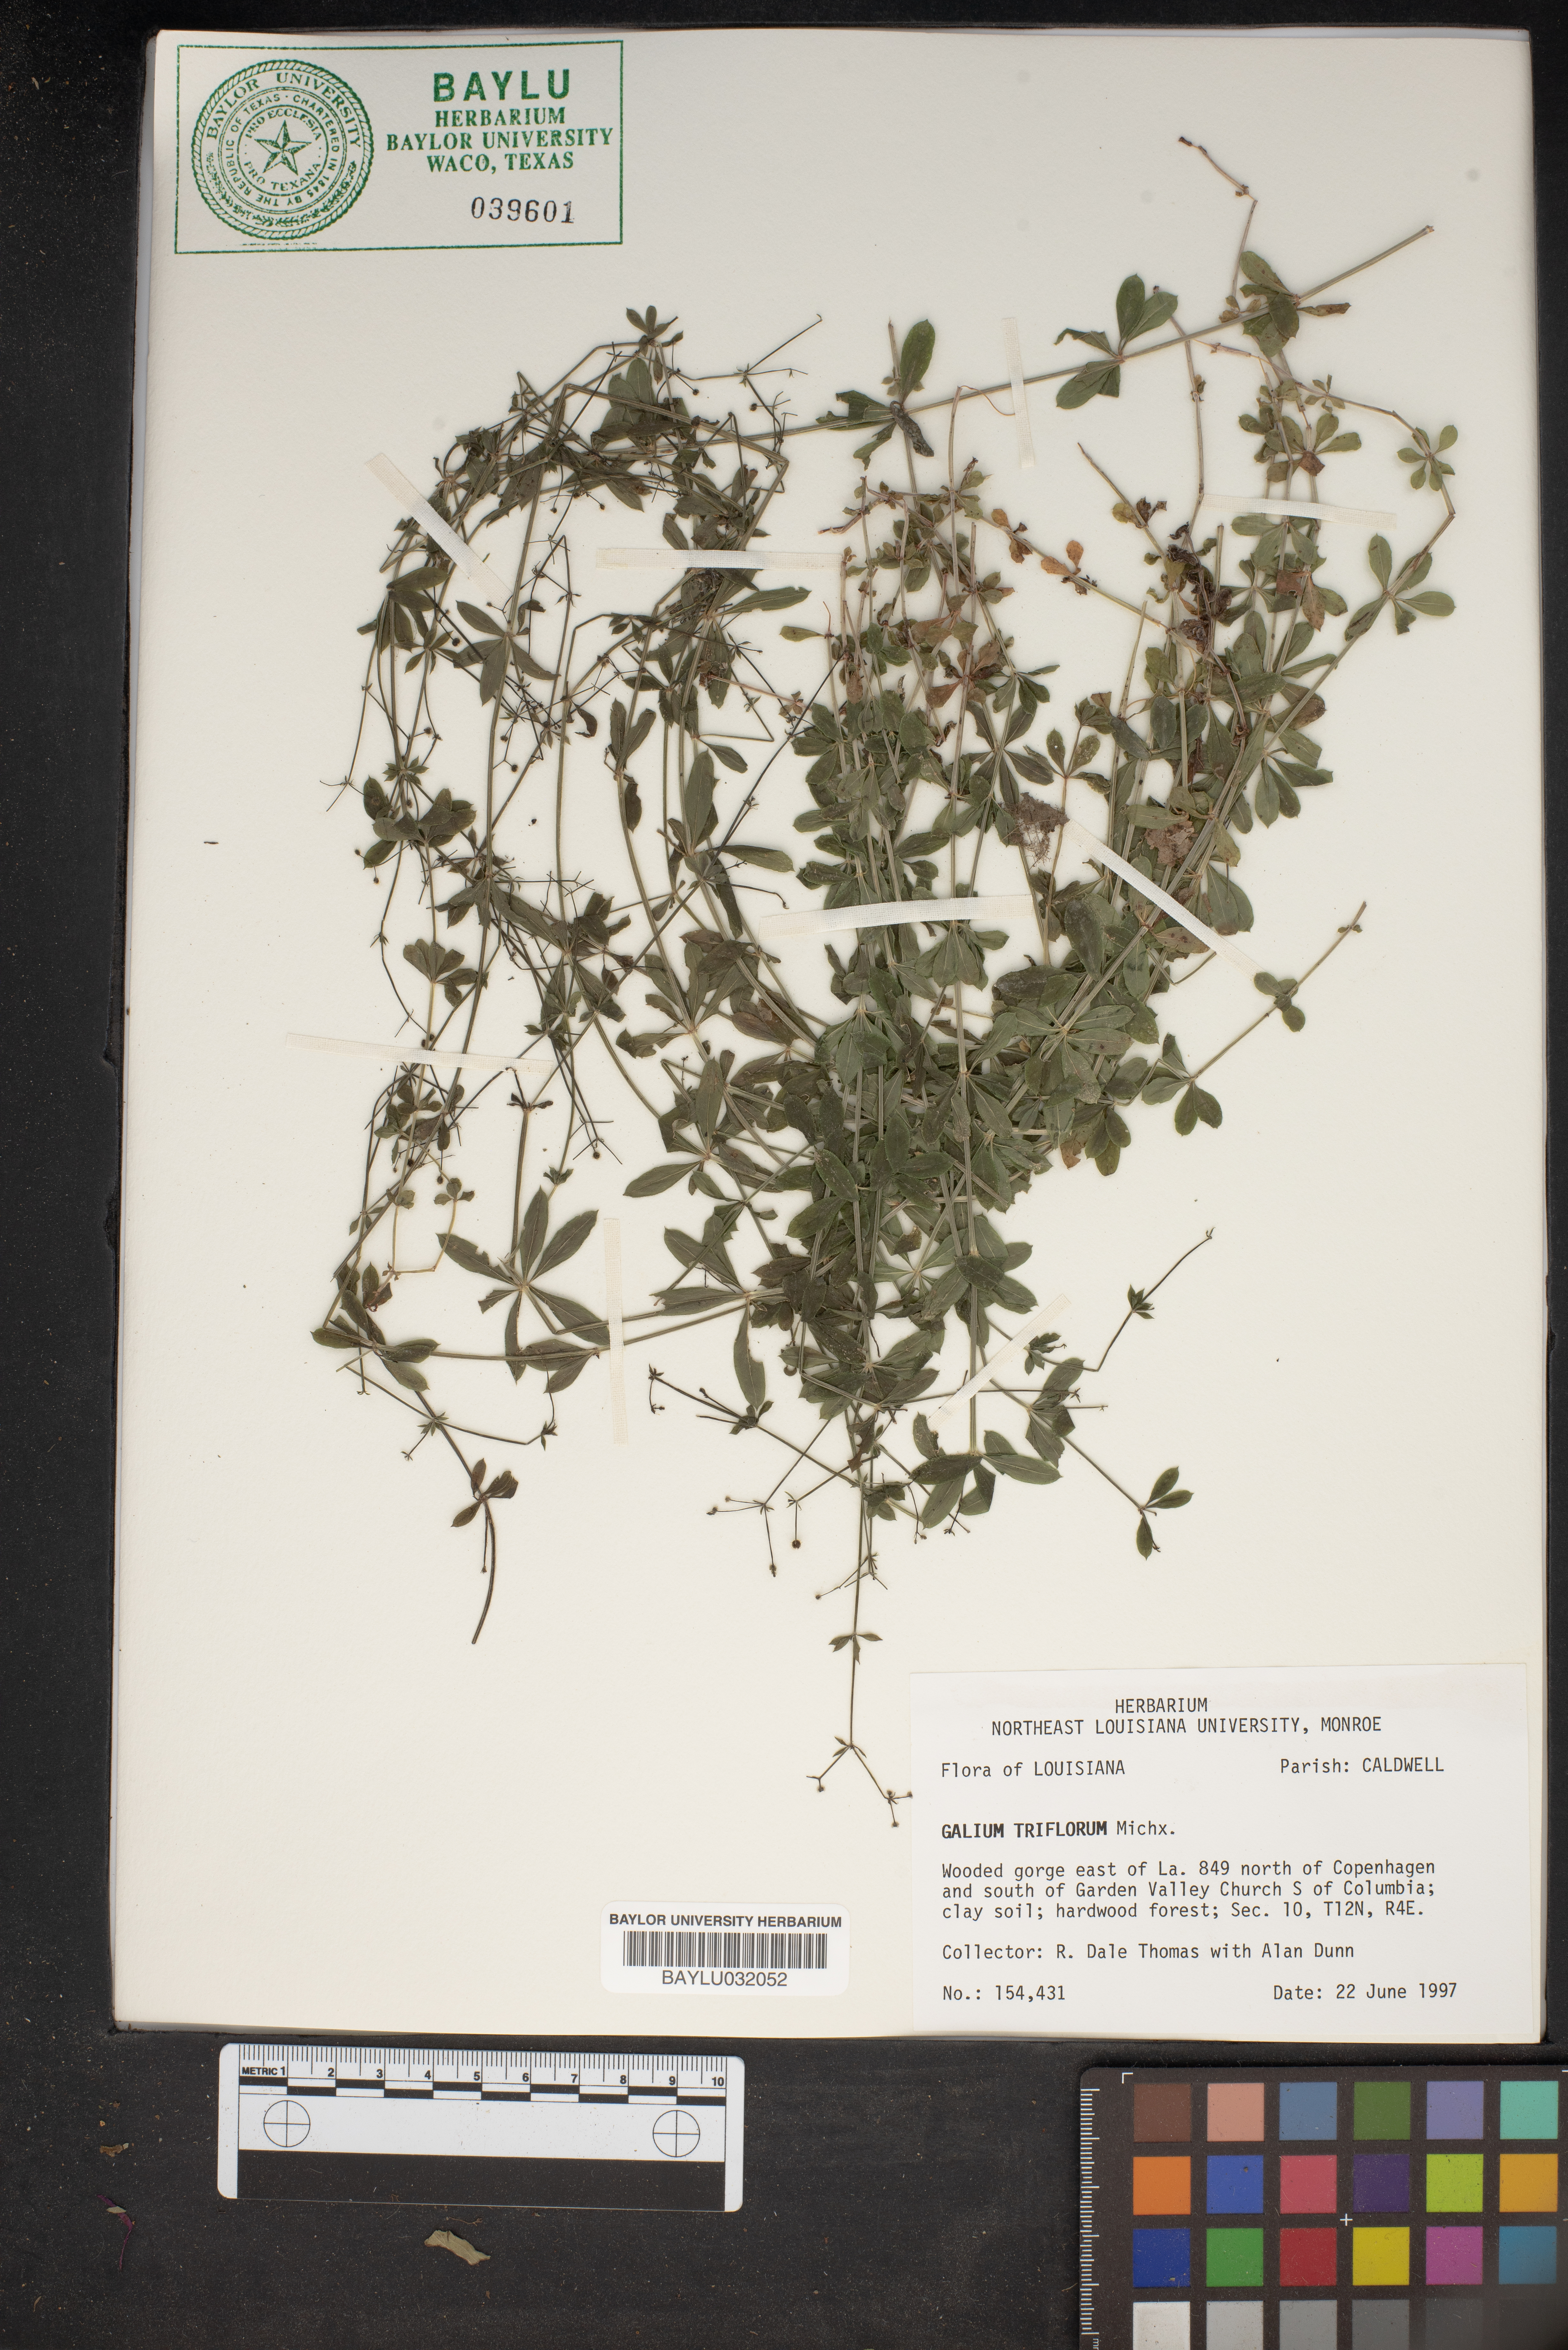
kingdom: Plantae
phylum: Tracheophyta
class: Magnoliopsida
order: Gentianales
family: Rubiaceae
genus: Galium
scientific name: Galium triflorum
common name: Fragrant bedstraw
